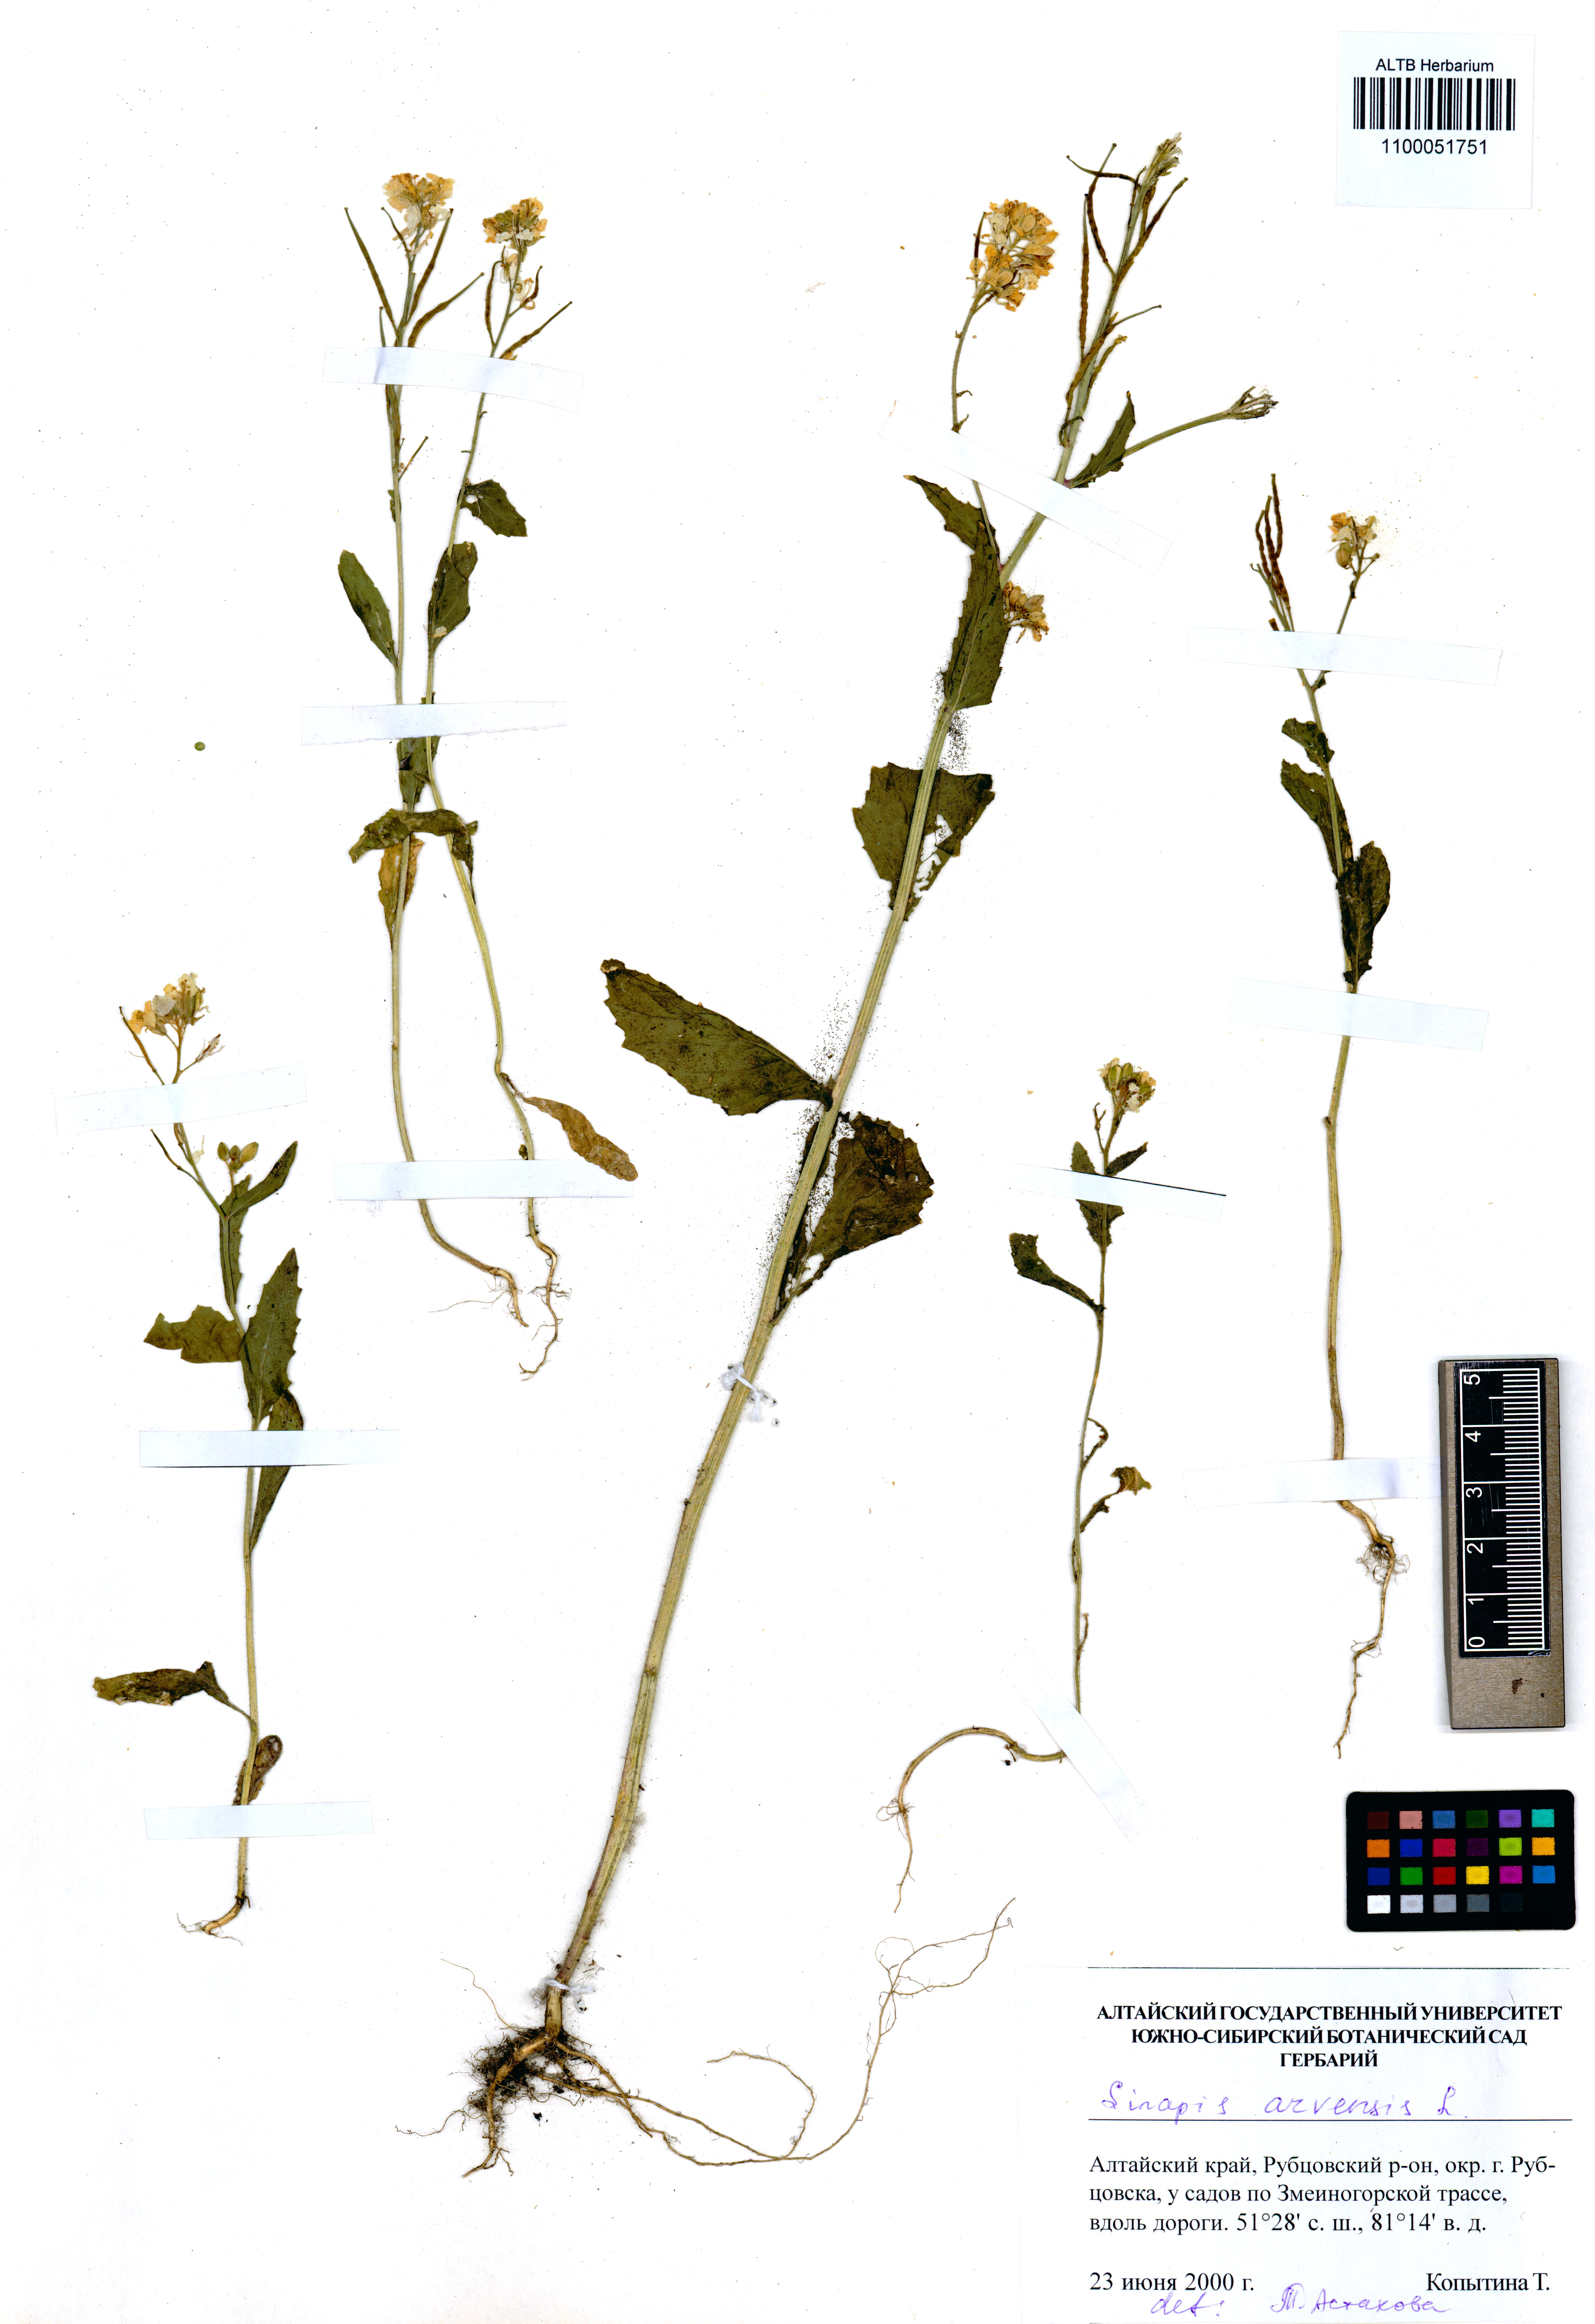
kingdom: Plantae
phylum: Tracheophyta
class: Magnoliopsida
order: Brassicales
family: Brassicaceae
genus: Sinapis
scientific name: Sinapis arvensis
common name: Charlock
